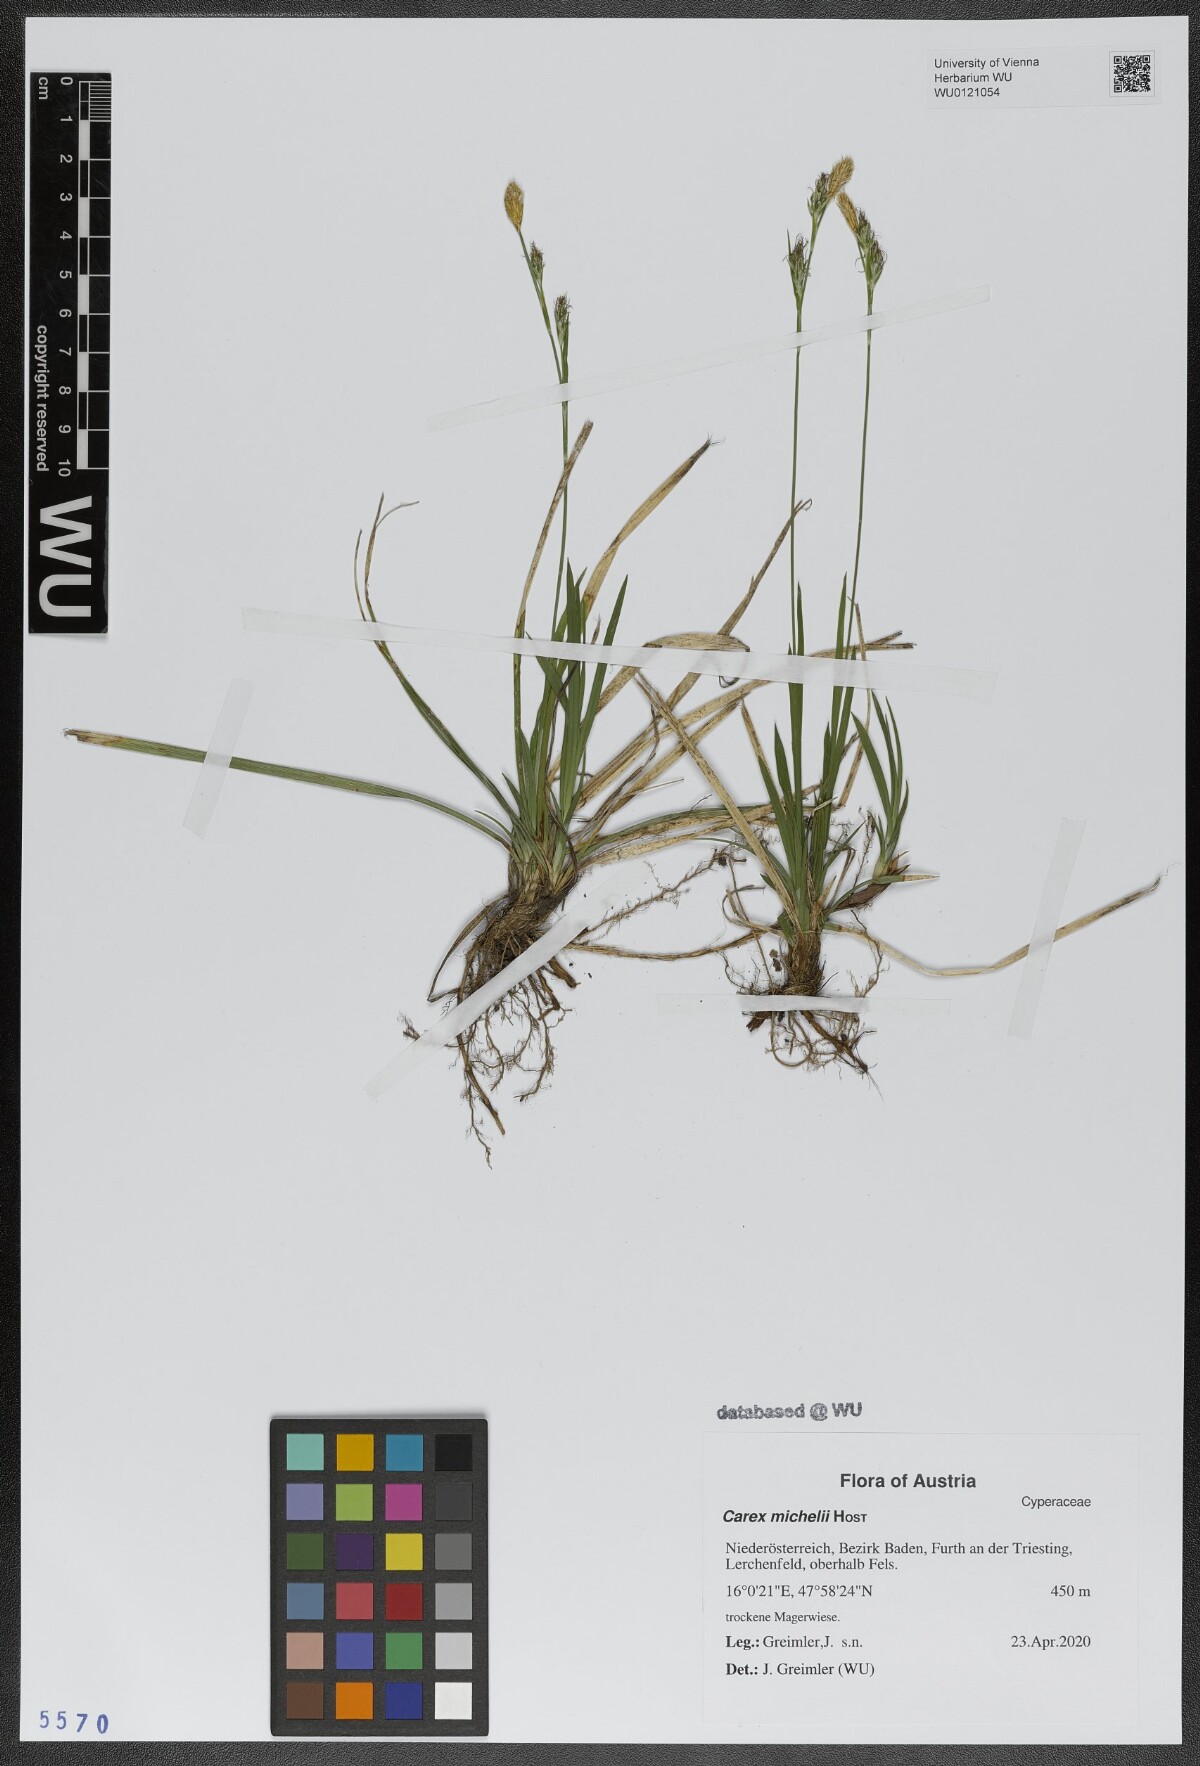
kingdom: Plantae
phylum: Tracheophyta
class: Liliopsida
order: Poales
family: Cyperaceae
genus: Carex
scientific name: Carex michelii
